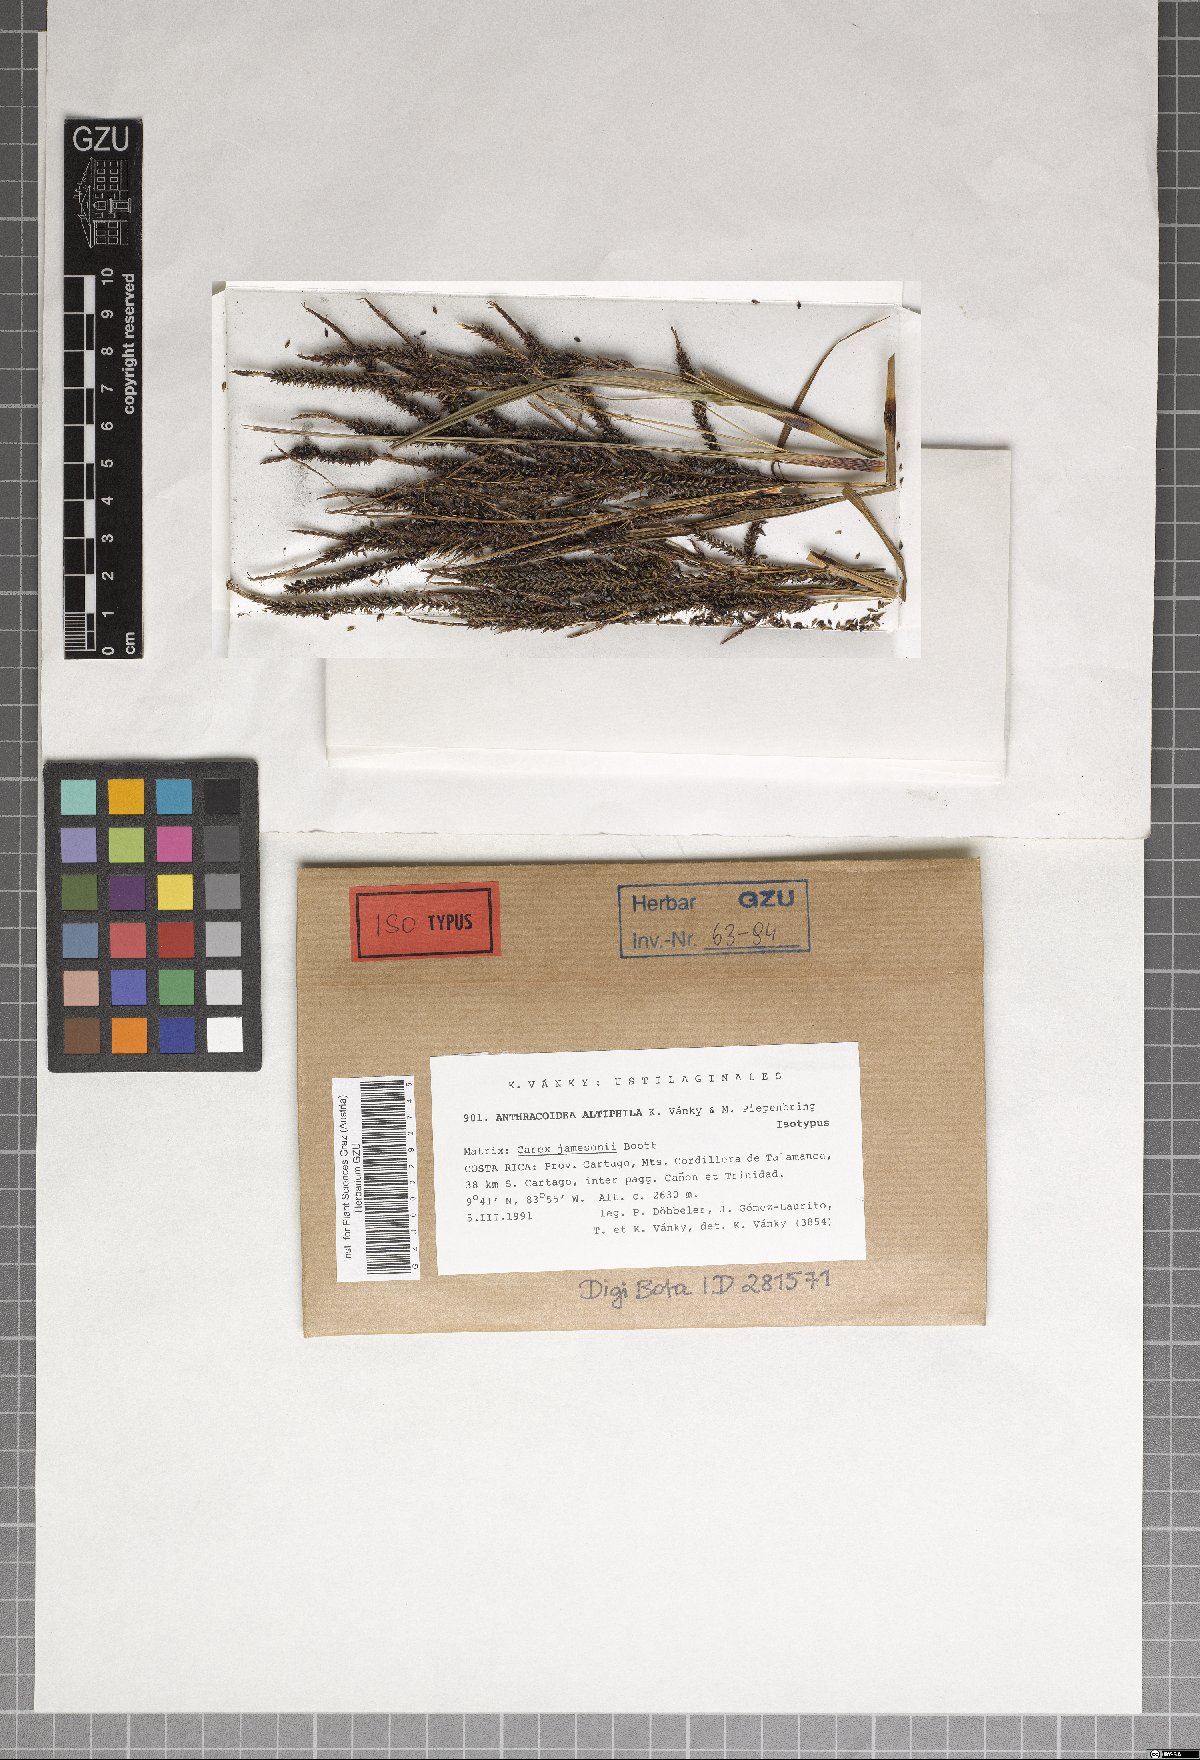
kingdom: Fungi
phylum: Basidiomycota
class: Ustilaginomycetes
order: Ustilaginales
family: Anthracoideaceae
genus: Anthracoidea
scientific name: Anthracoidea altiphila
